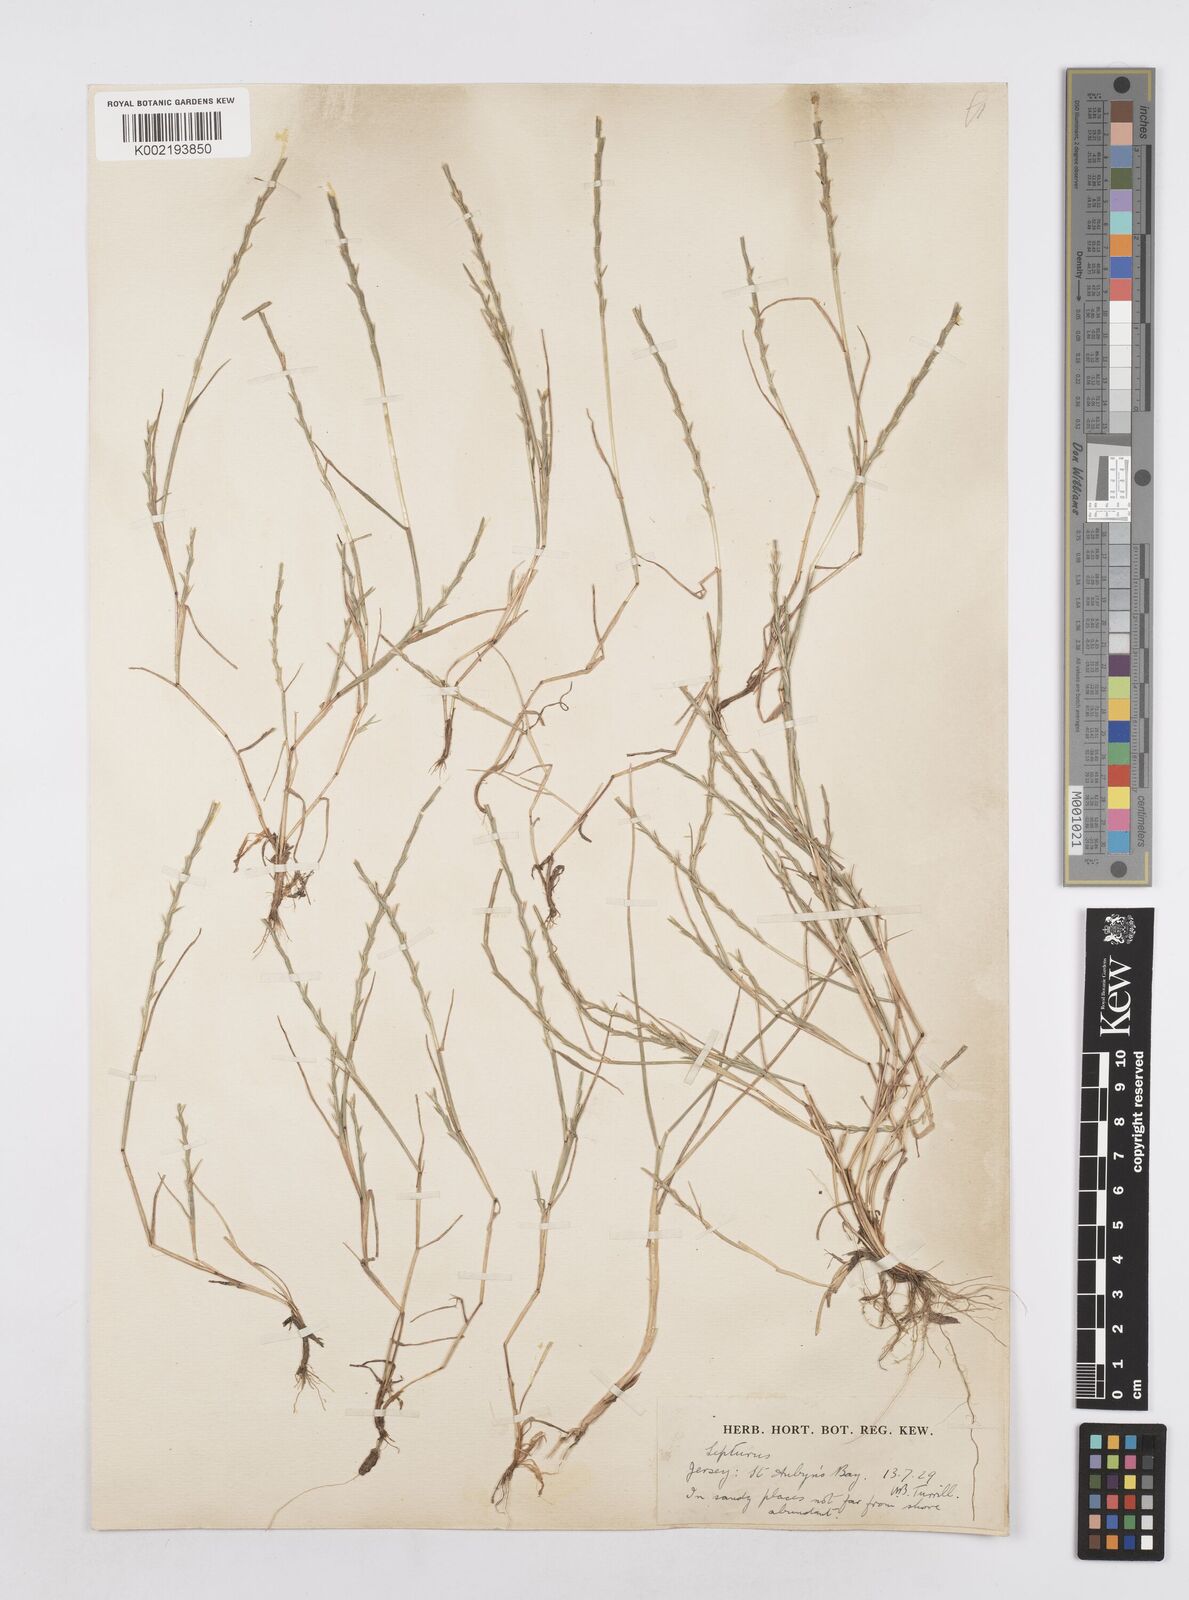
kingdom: Plantae
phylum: Tracheophyta
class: Liliopsida
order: Poales
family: Poaceae
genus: Parapholis
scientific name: Parapholis strigosa
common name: Hard-grass
